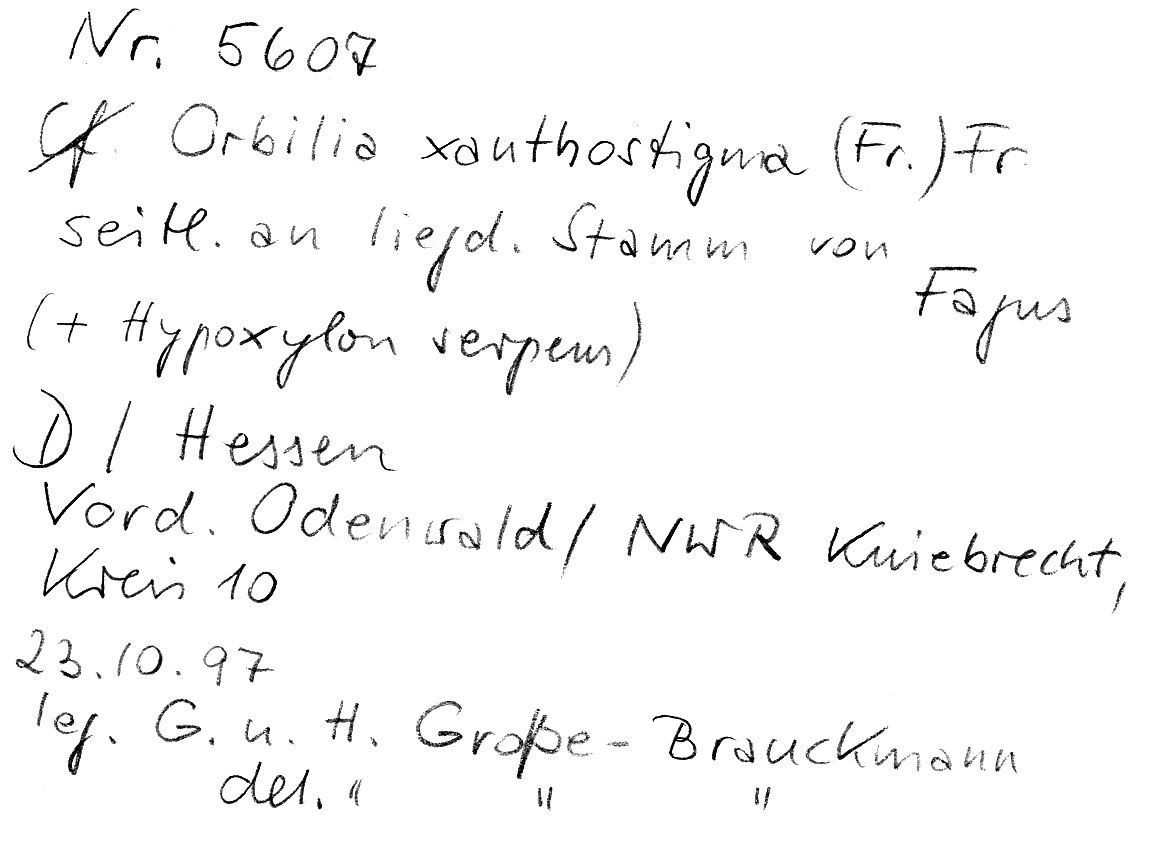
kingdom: Fungi
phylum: Ascomycota
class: Sordariomycetes
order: Xylariales
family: Xylariaceae
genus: Nemania
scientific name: Nemania serpens
